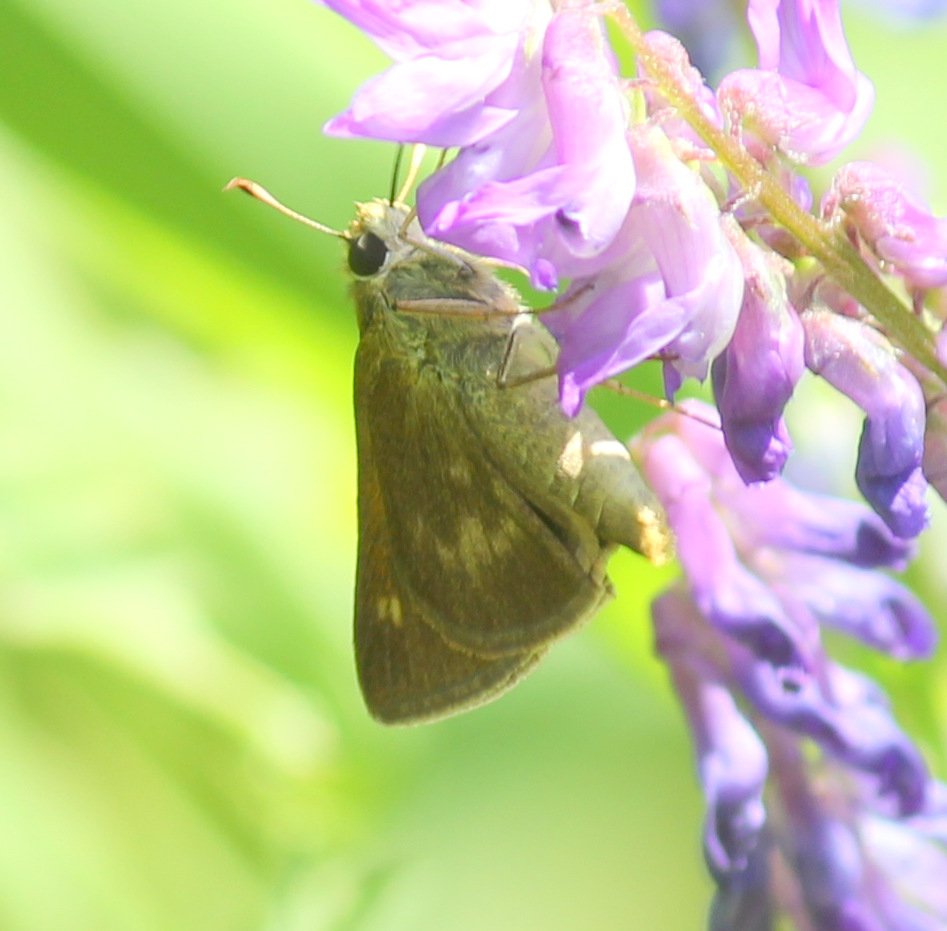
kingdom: Animalia
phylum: Arthropoda
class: Insecta
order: Lepidoptera
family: Hesperiidae
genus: Polites
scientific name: Polites egeremet
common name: Northern Broken-Dash
